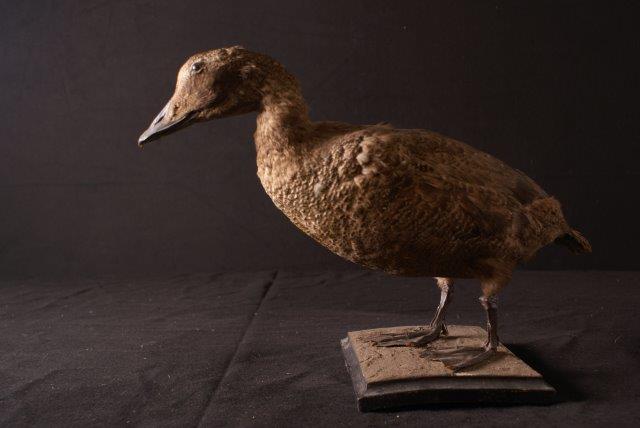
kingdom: Animalia
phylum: Chordata
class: Aves
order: Anseriformes
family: Anatidae
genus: Somateria
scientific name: Somateria mollissima
